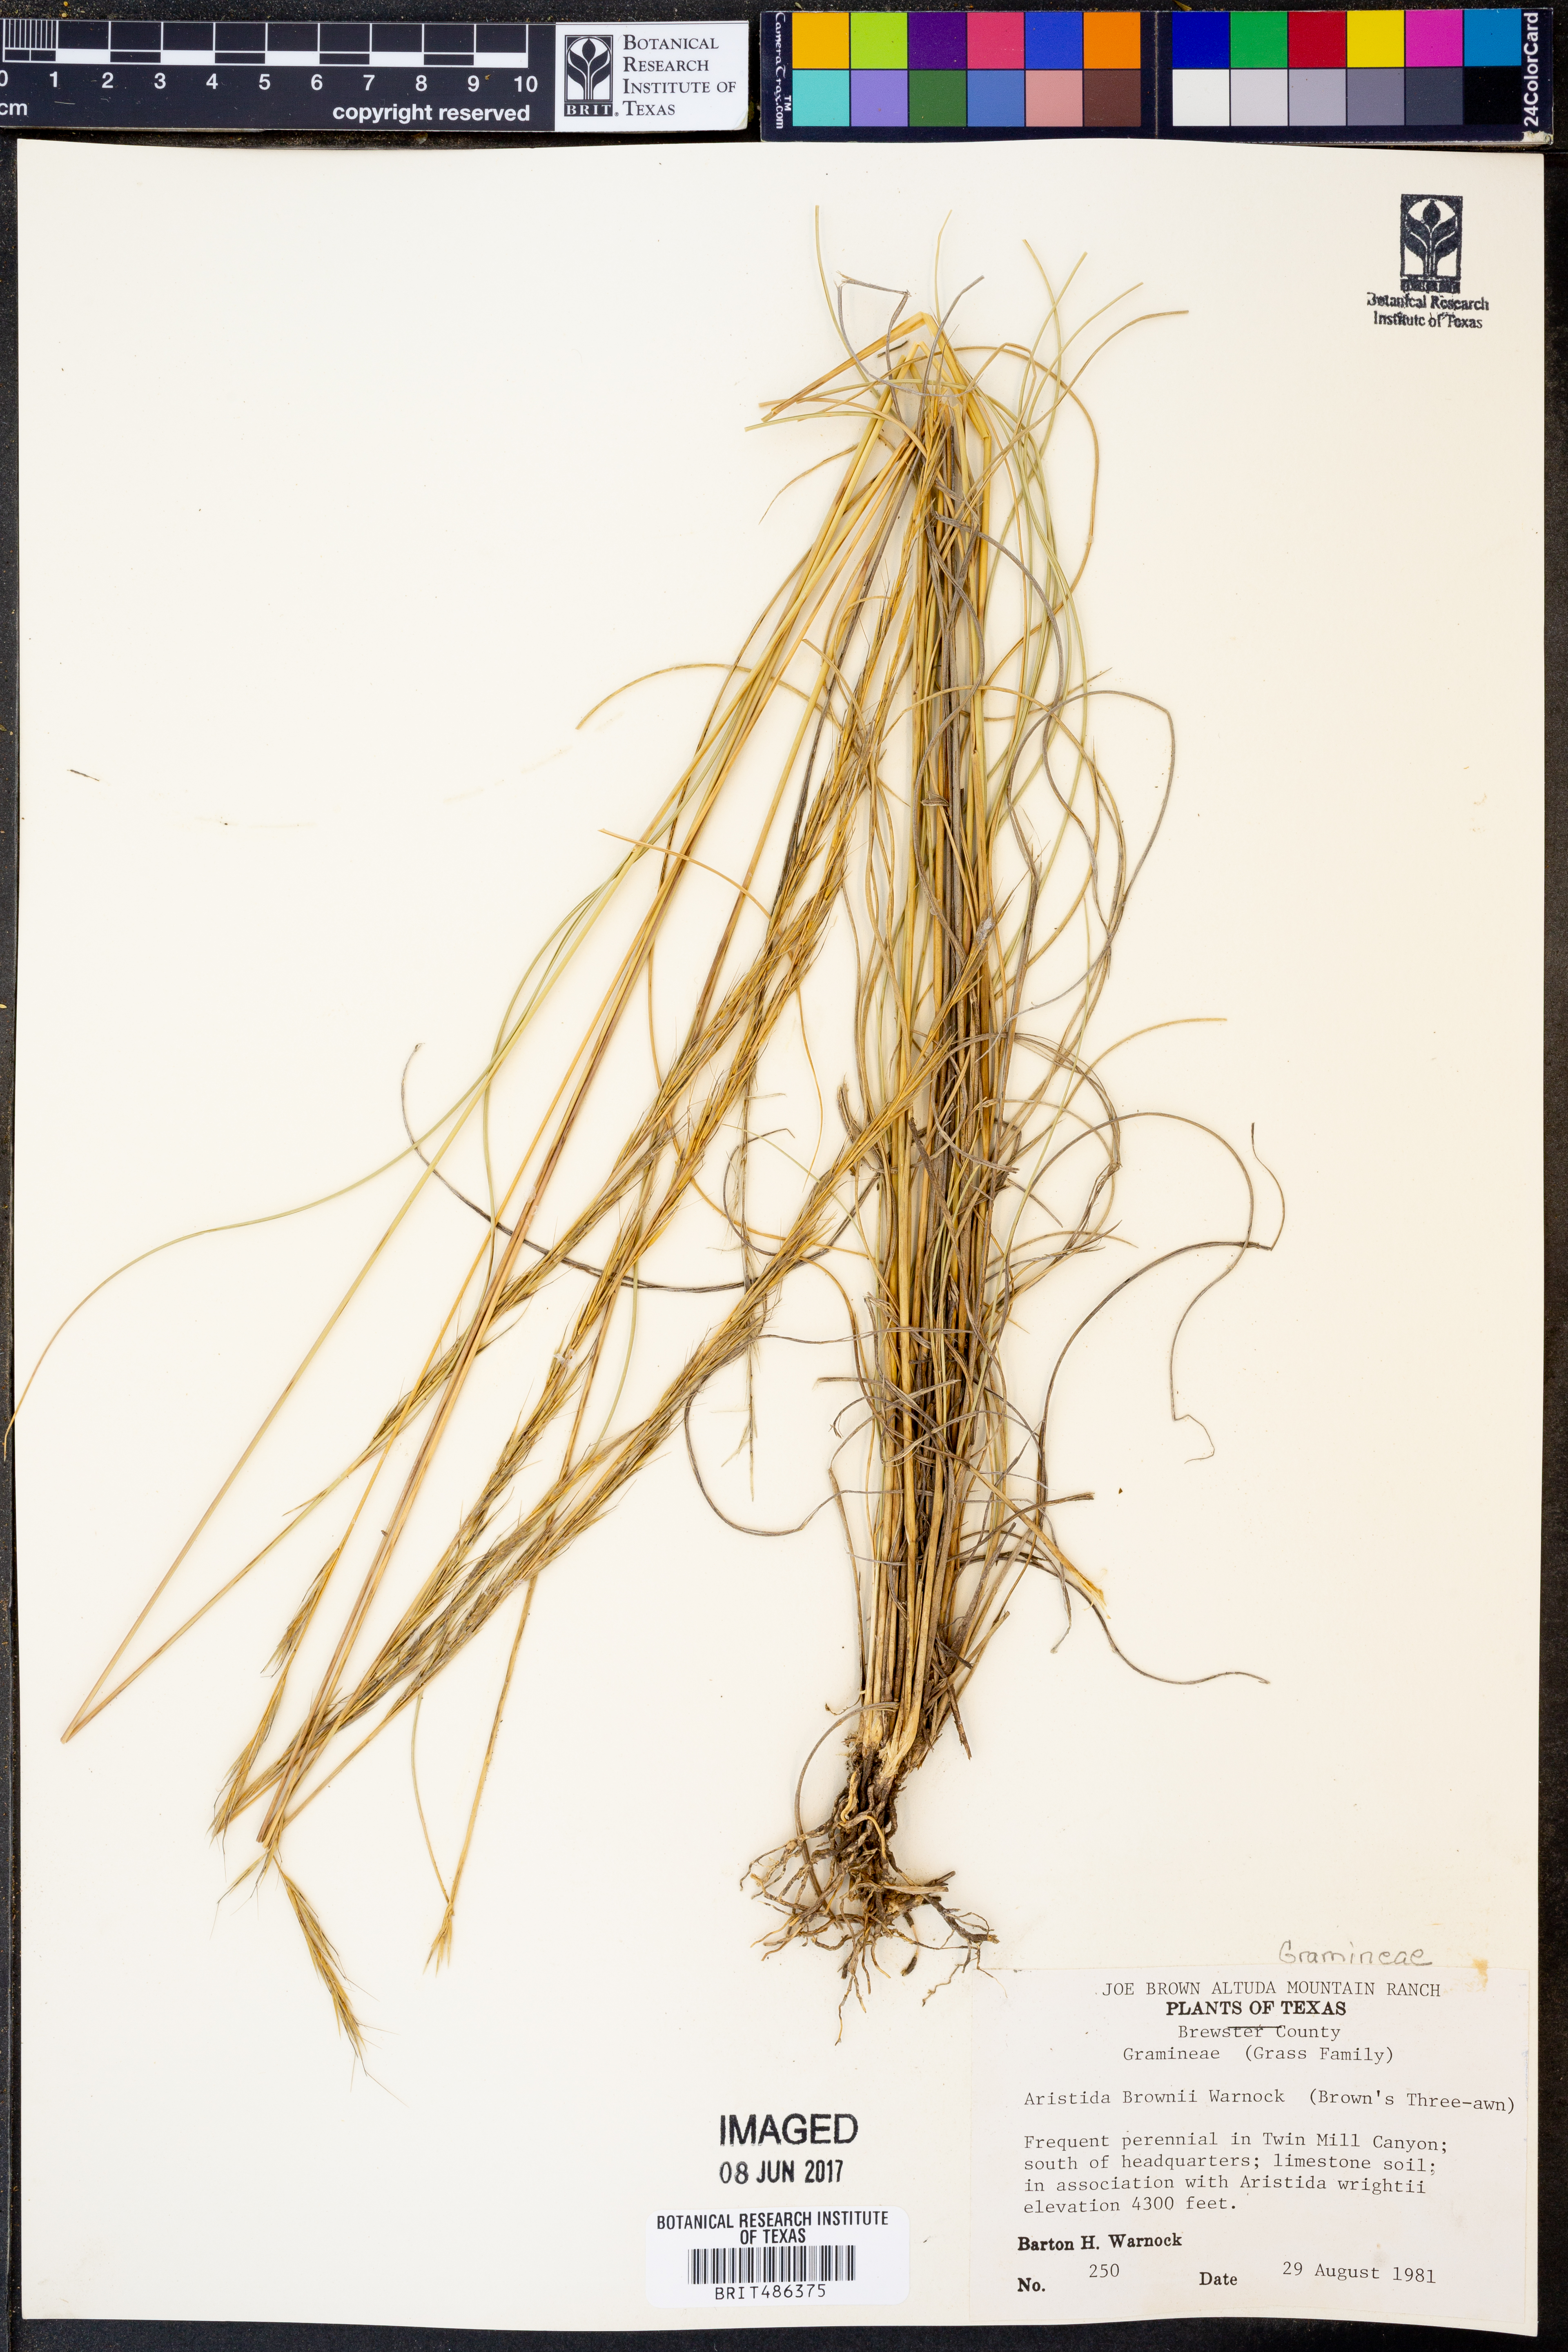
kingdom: Plantae
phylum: Tracheophyta
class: Liliopsida
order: Poales
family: Poaceae
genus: Aristida
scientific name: Aristida purpurea
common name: Purple threeawn
